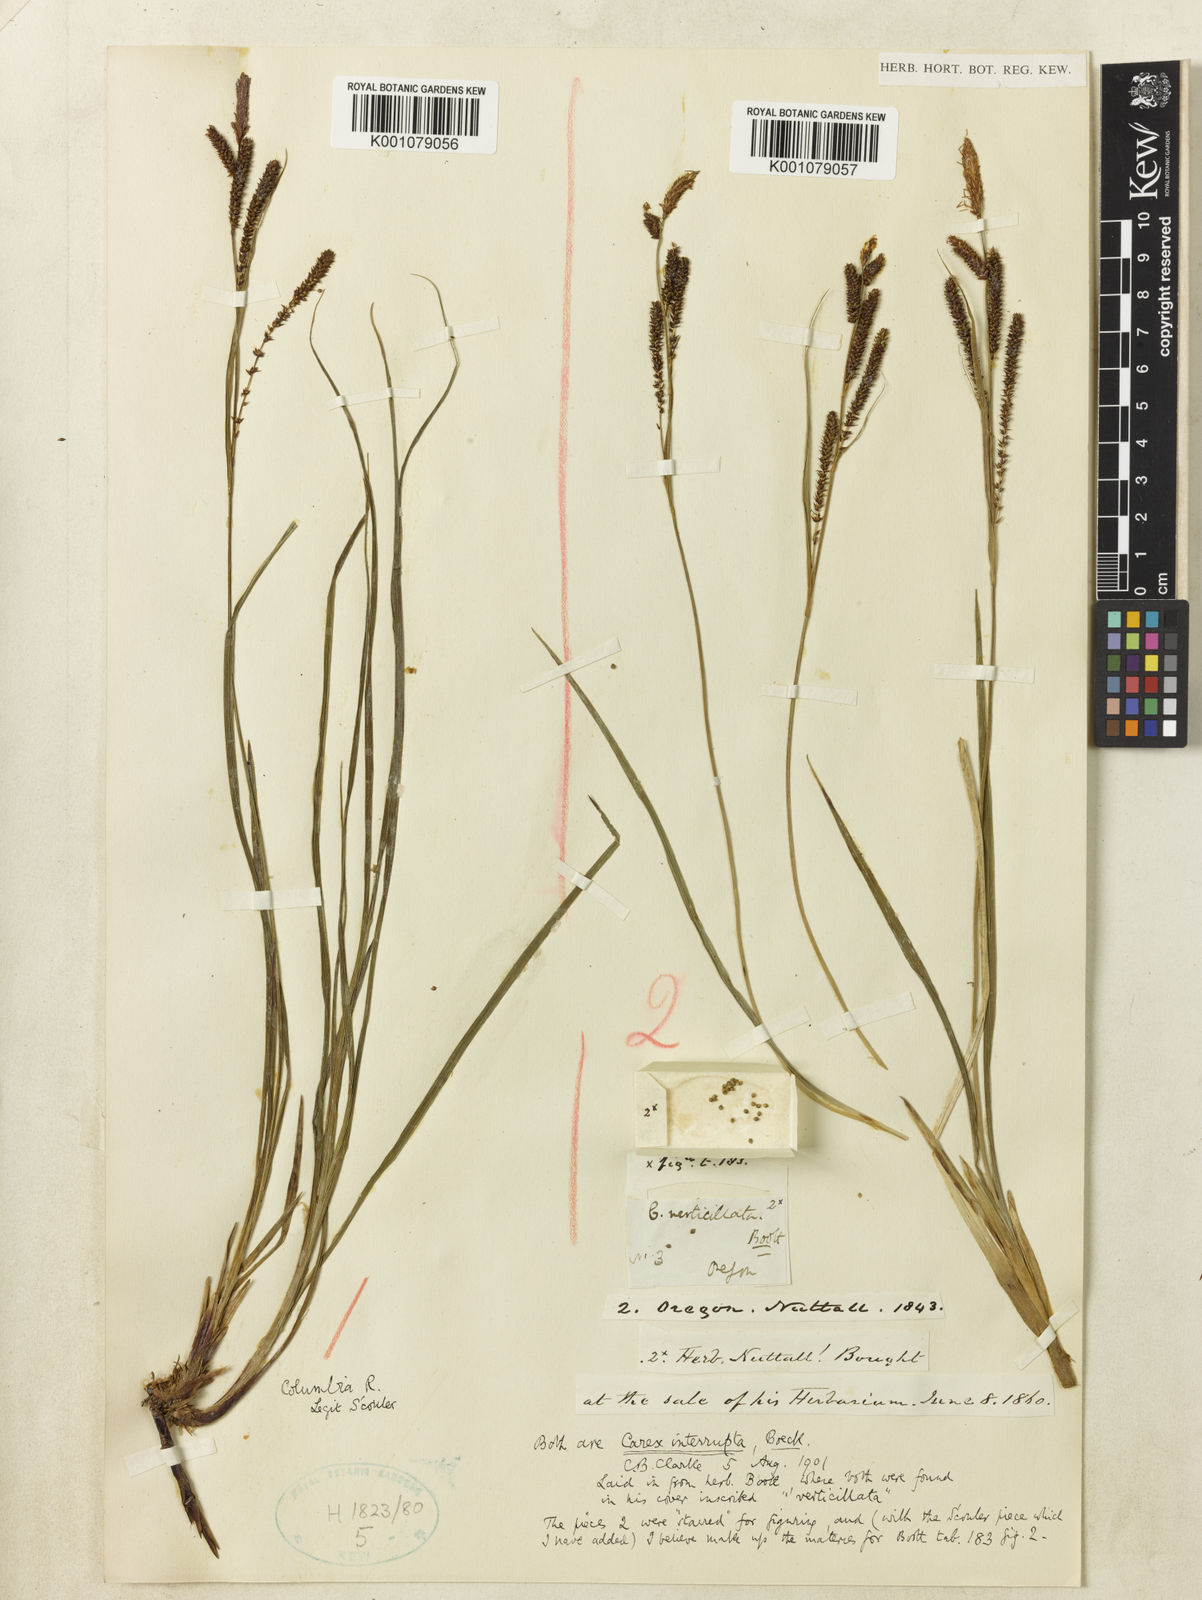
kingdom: Plantae
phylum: Tracheophyta
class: Liliopsida
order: Poales
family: Cyperaceae
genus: Carex
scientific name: Carex interrupta
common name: Green-fruited sedge
